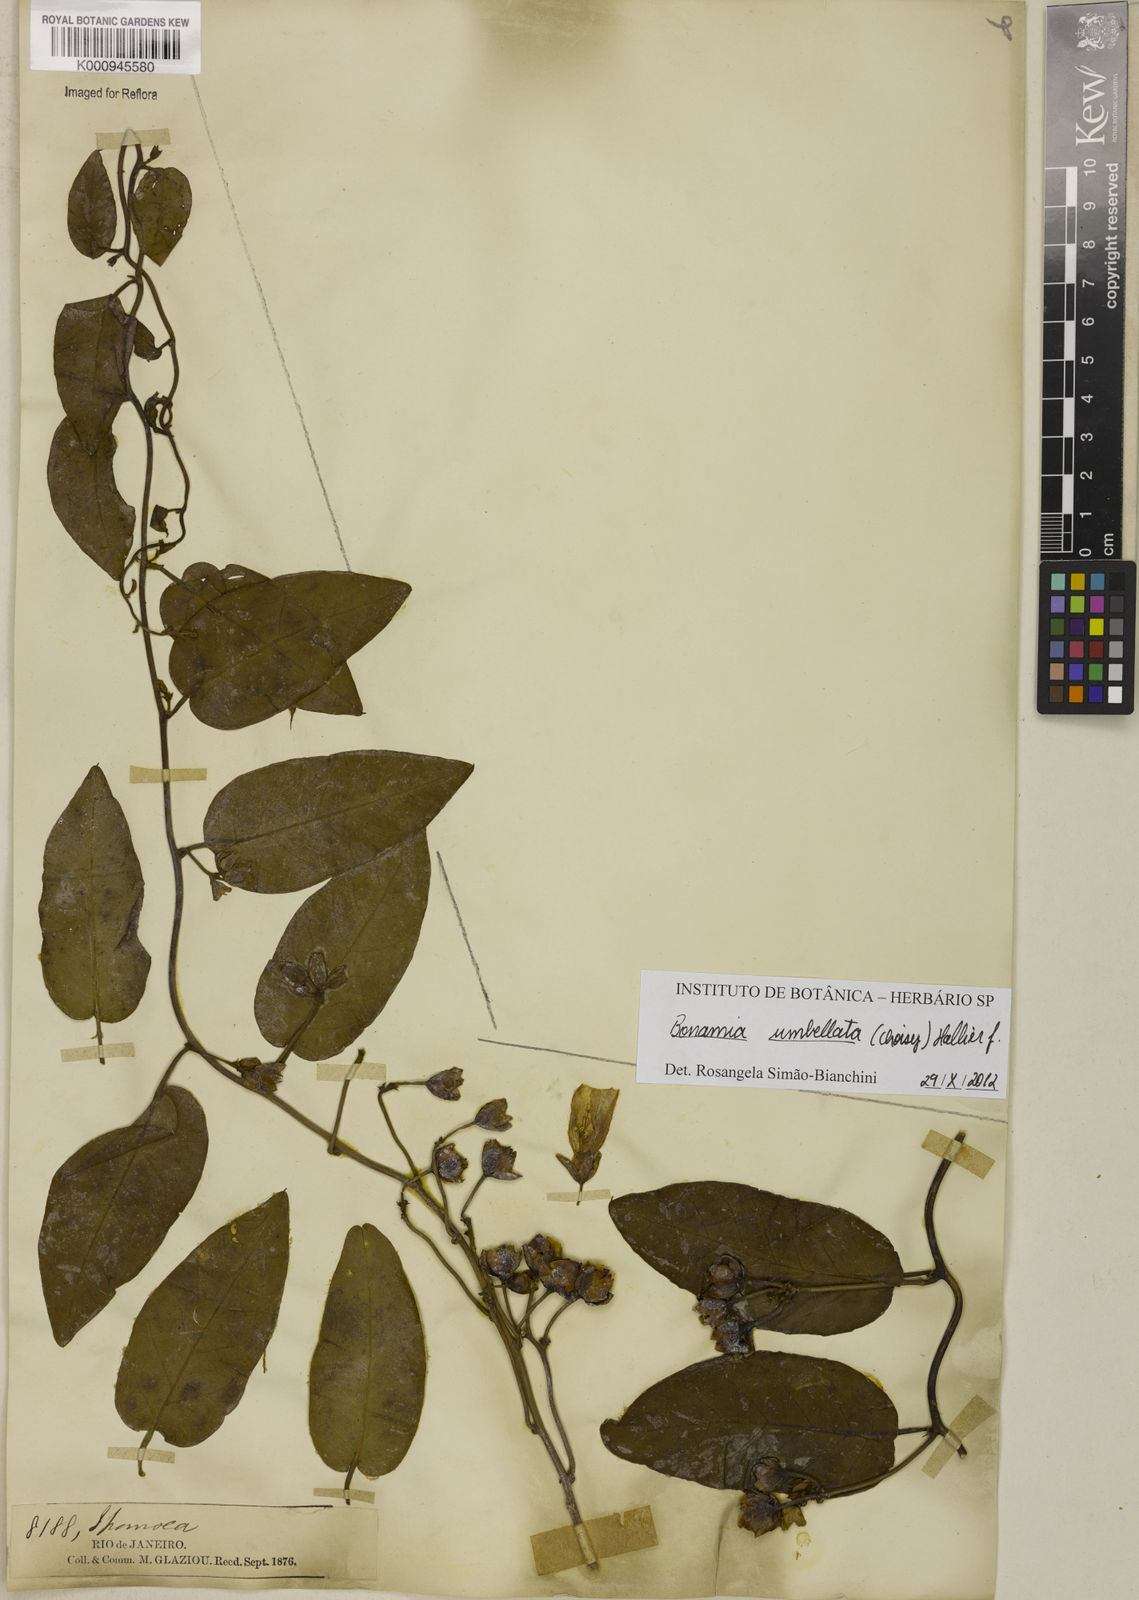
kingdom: Plantae
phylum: Tracheophyta
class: Magnoliopsida
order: Solanales
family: Convolvulaceae
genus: Bonamia
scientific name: Bonamia umbellata
